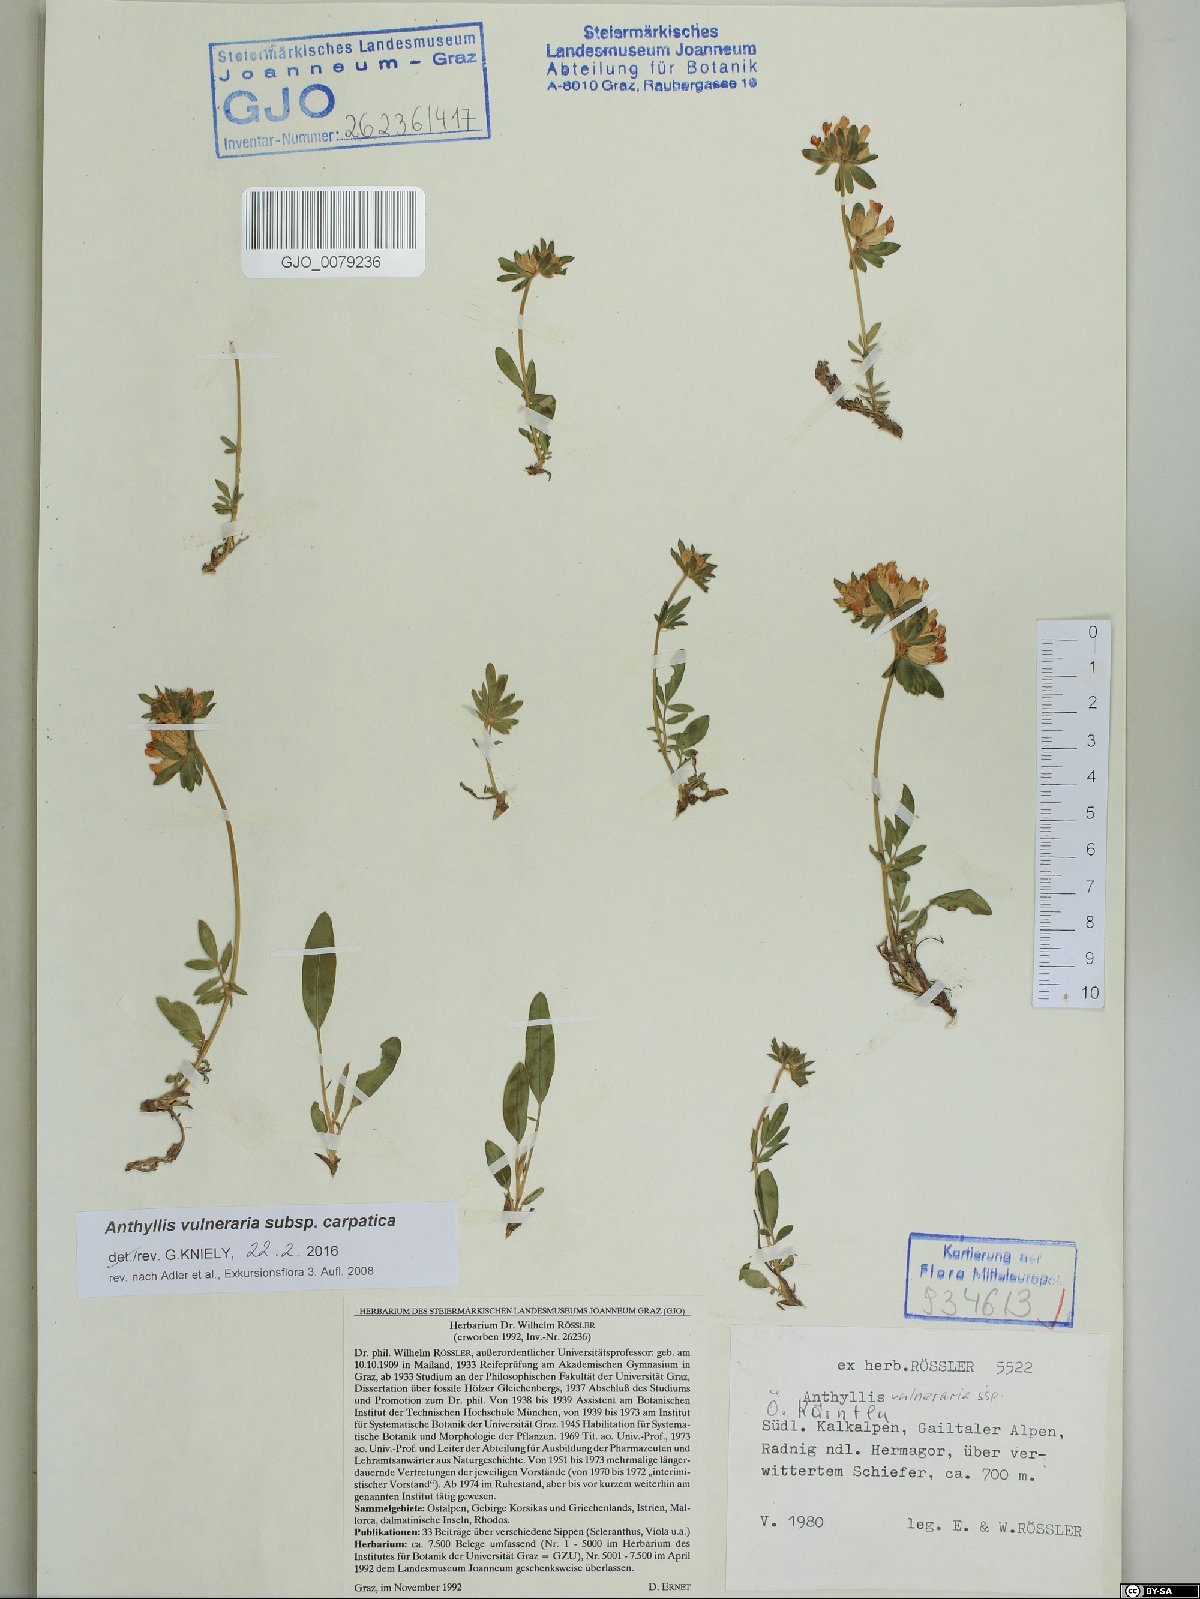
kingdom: Plantae
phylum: Tracheophyta
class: Magnoliopsida
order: Fabales
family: Fabaceae
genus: Anthyllis
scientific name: Anthyllis vulneraria
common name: Kidney vetch
